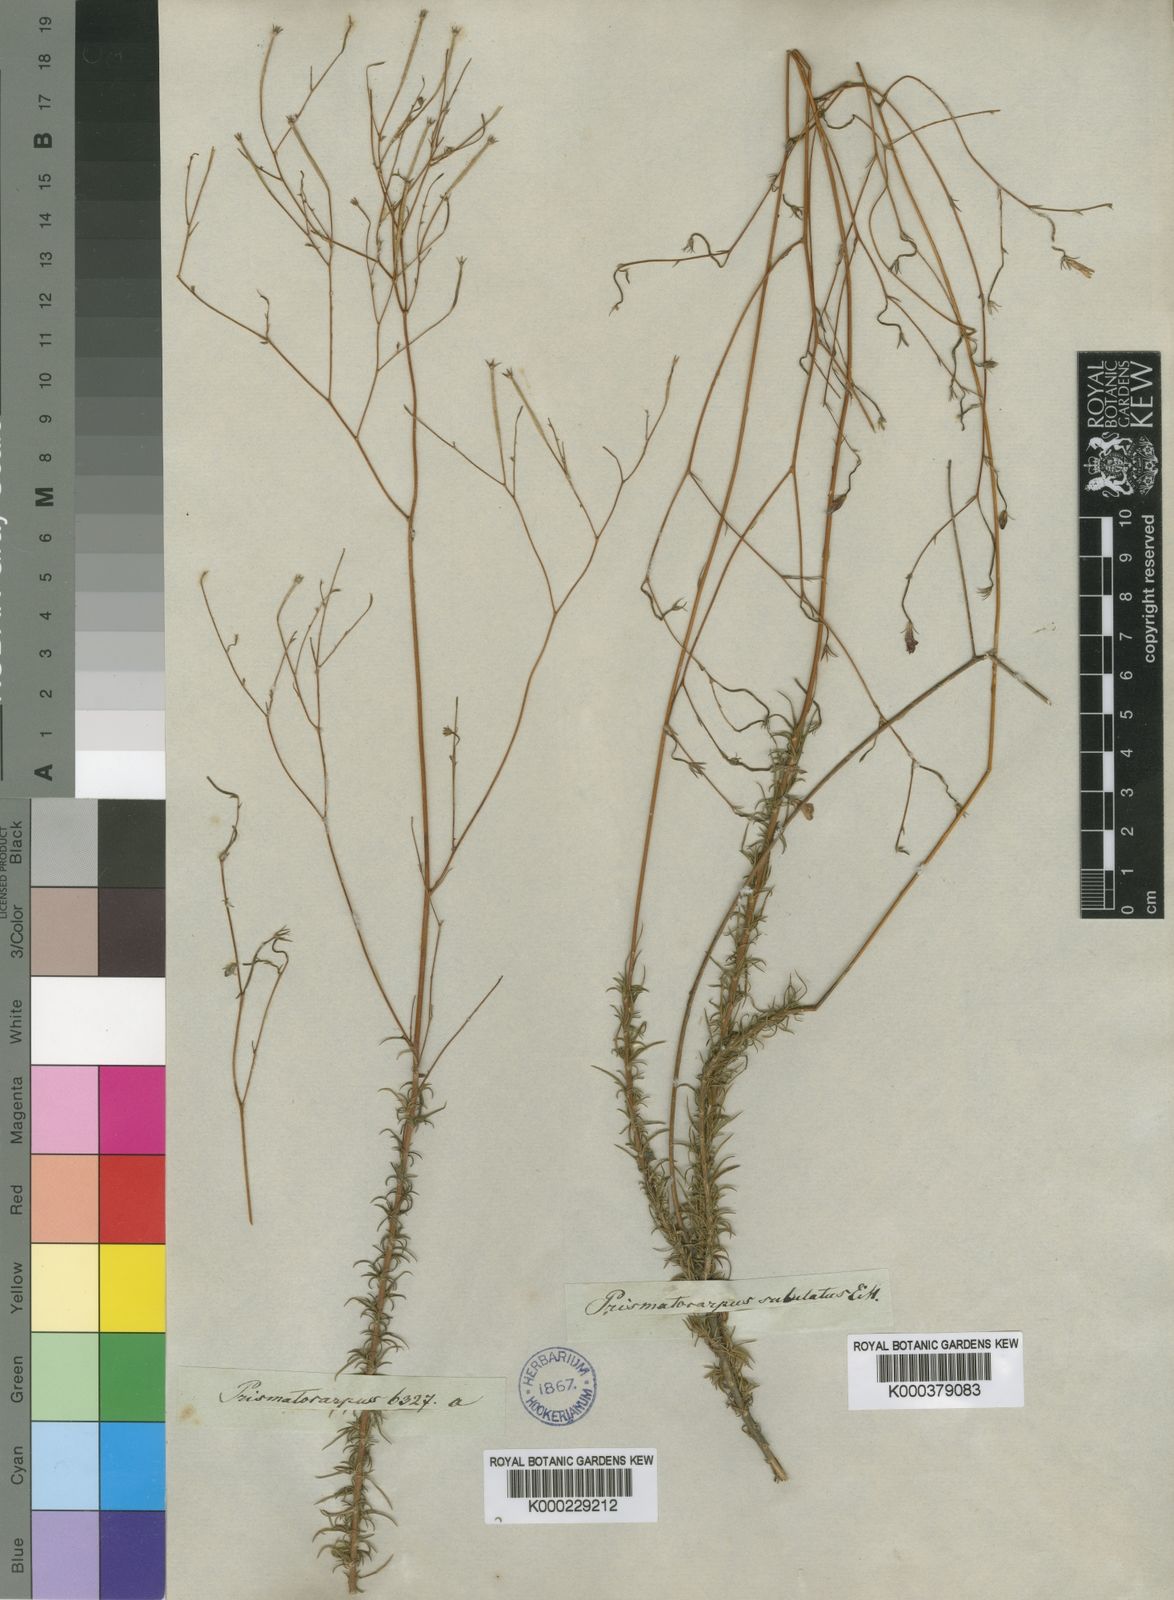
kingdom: Plantae
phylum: Tracheophyta
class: Magnoliopsida
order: Asterales
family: Campanulaceae
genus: Prismatocarpus
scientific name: Prismatocarpus fruticosus
